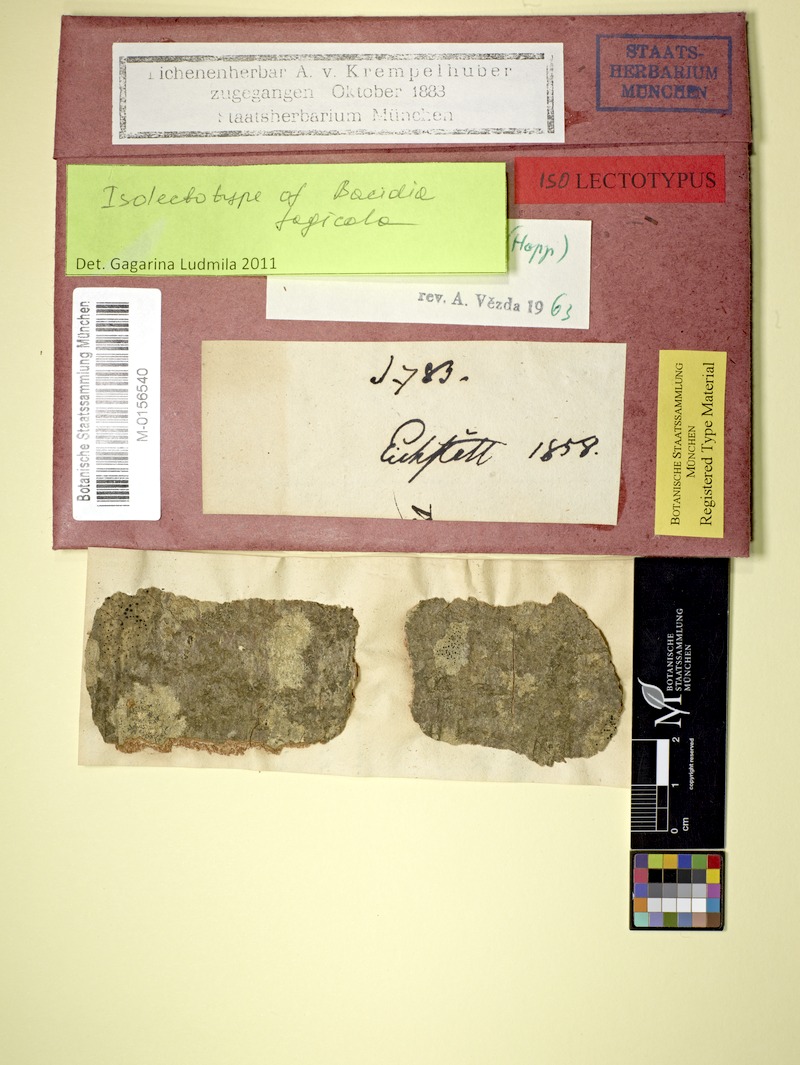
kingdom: Fungi
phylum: Ascomycota
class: Lecanoromycetes
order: Gyalectales
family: Gyalectaceae
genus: Pachyphiale
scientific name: Pachyphiale fagicola
